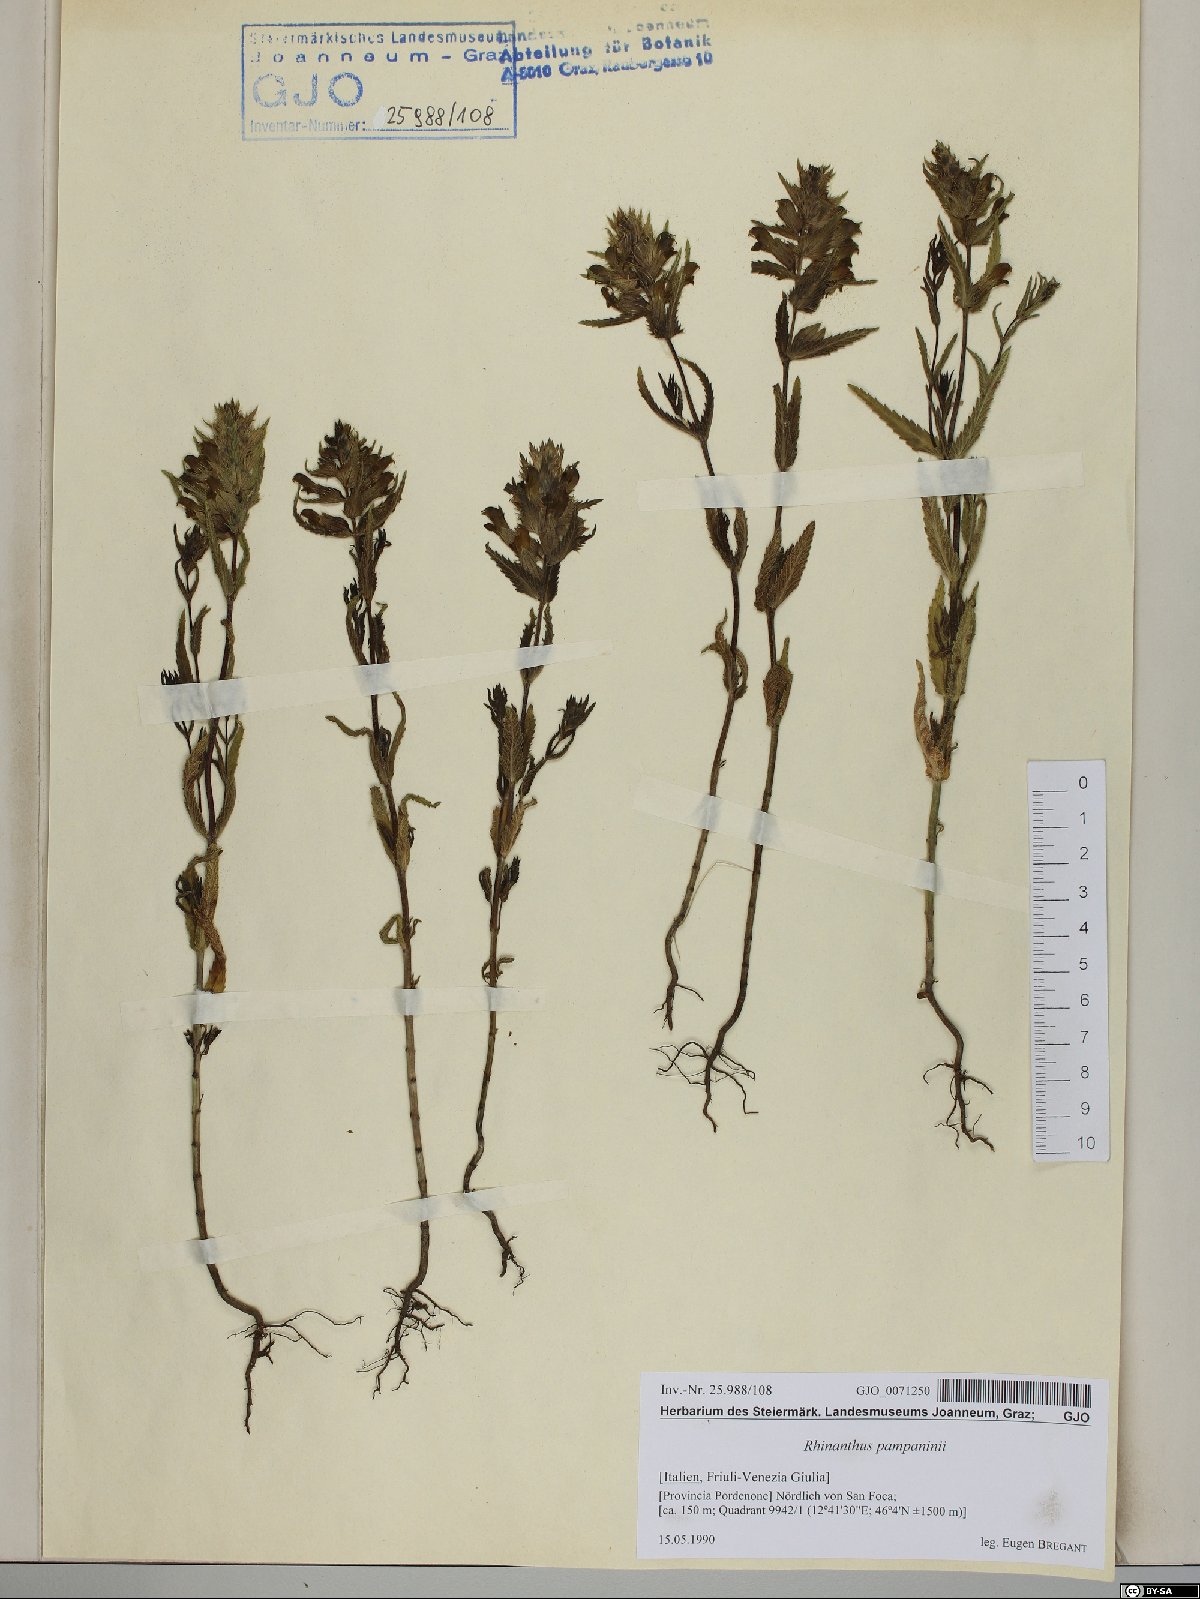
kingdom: Plantae
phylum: Tracheophyta
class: Magnoliopsida
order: Lamiales
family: Orobanchaceae
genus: Rhinanthus
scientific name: Rhinanthus pampaninii
